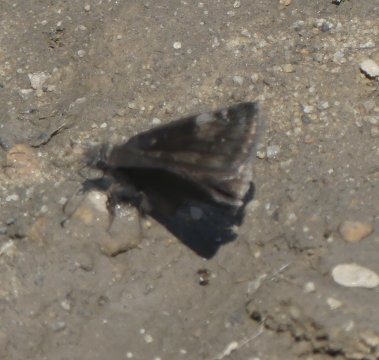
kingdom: Animalia
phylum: Arthropoda
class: Insecta
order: Lepidoptera
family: Hesperiidae
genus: Gesta
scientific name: Gesta
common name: Wild Indigo Duskywing
